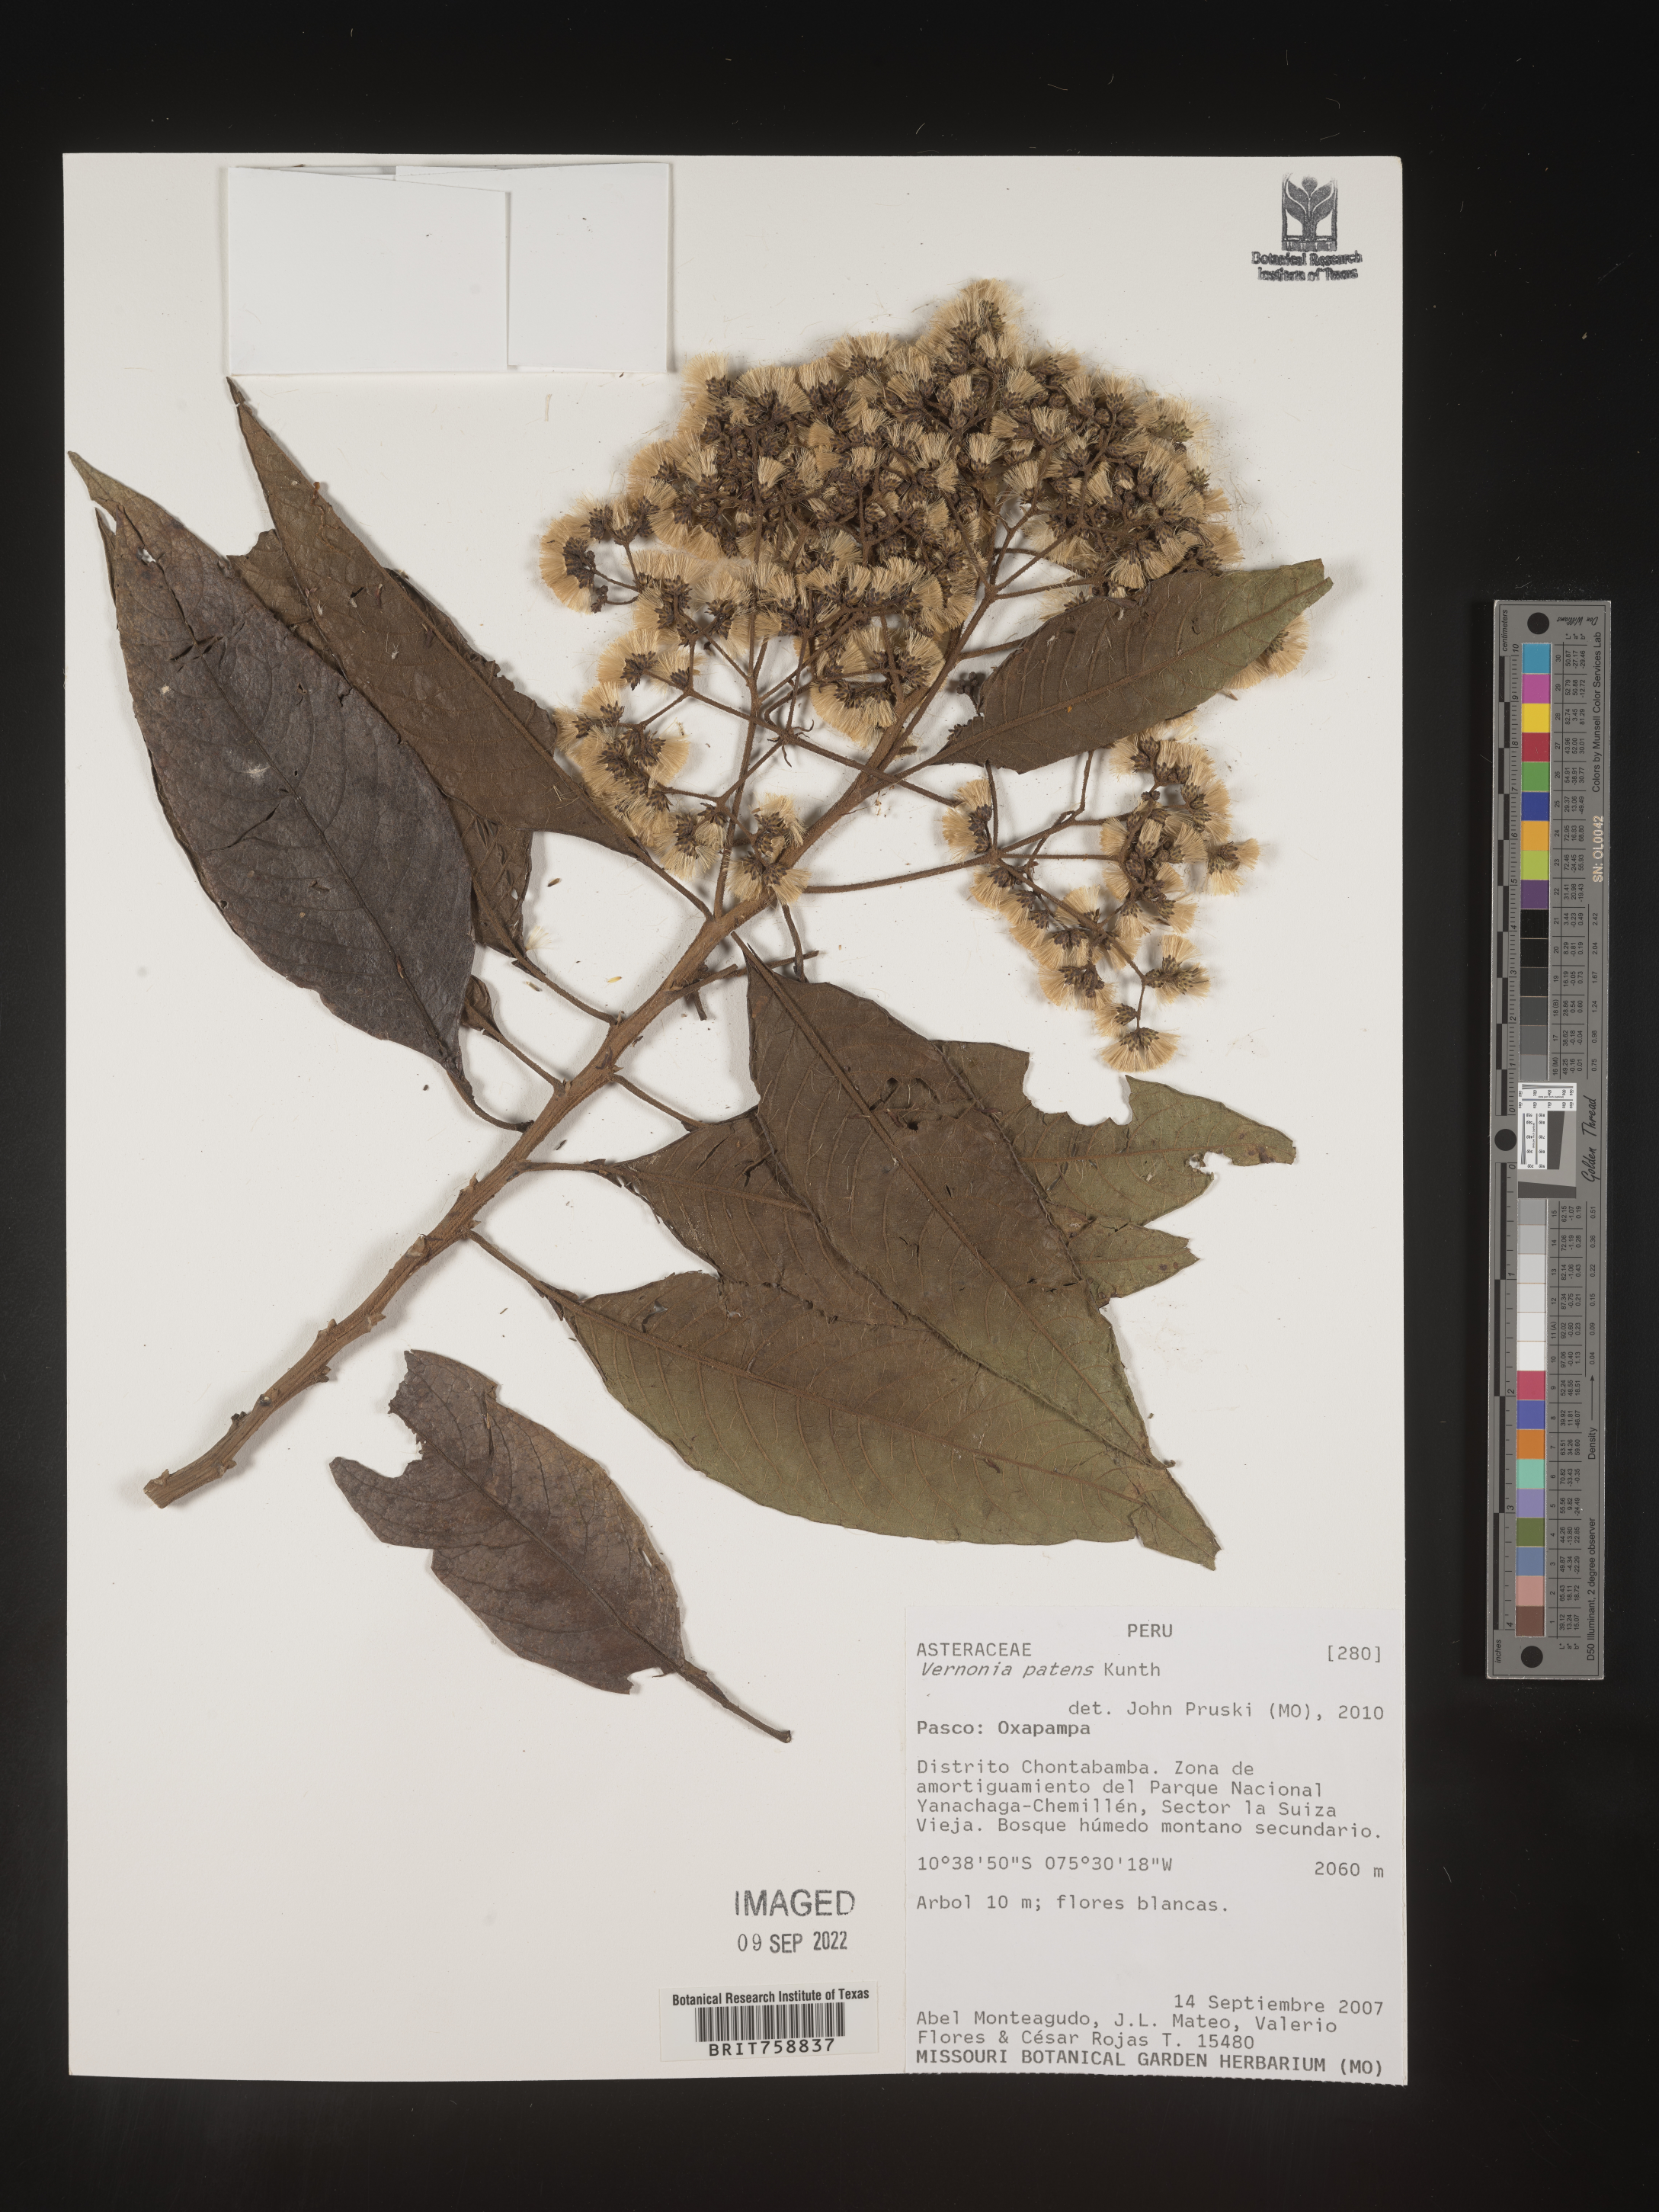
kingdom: Plantae
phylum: Tracheophyta
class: Magnoliopsida
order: Asterales
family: Asteraceae
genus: Vernonia
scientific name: Vernonia
